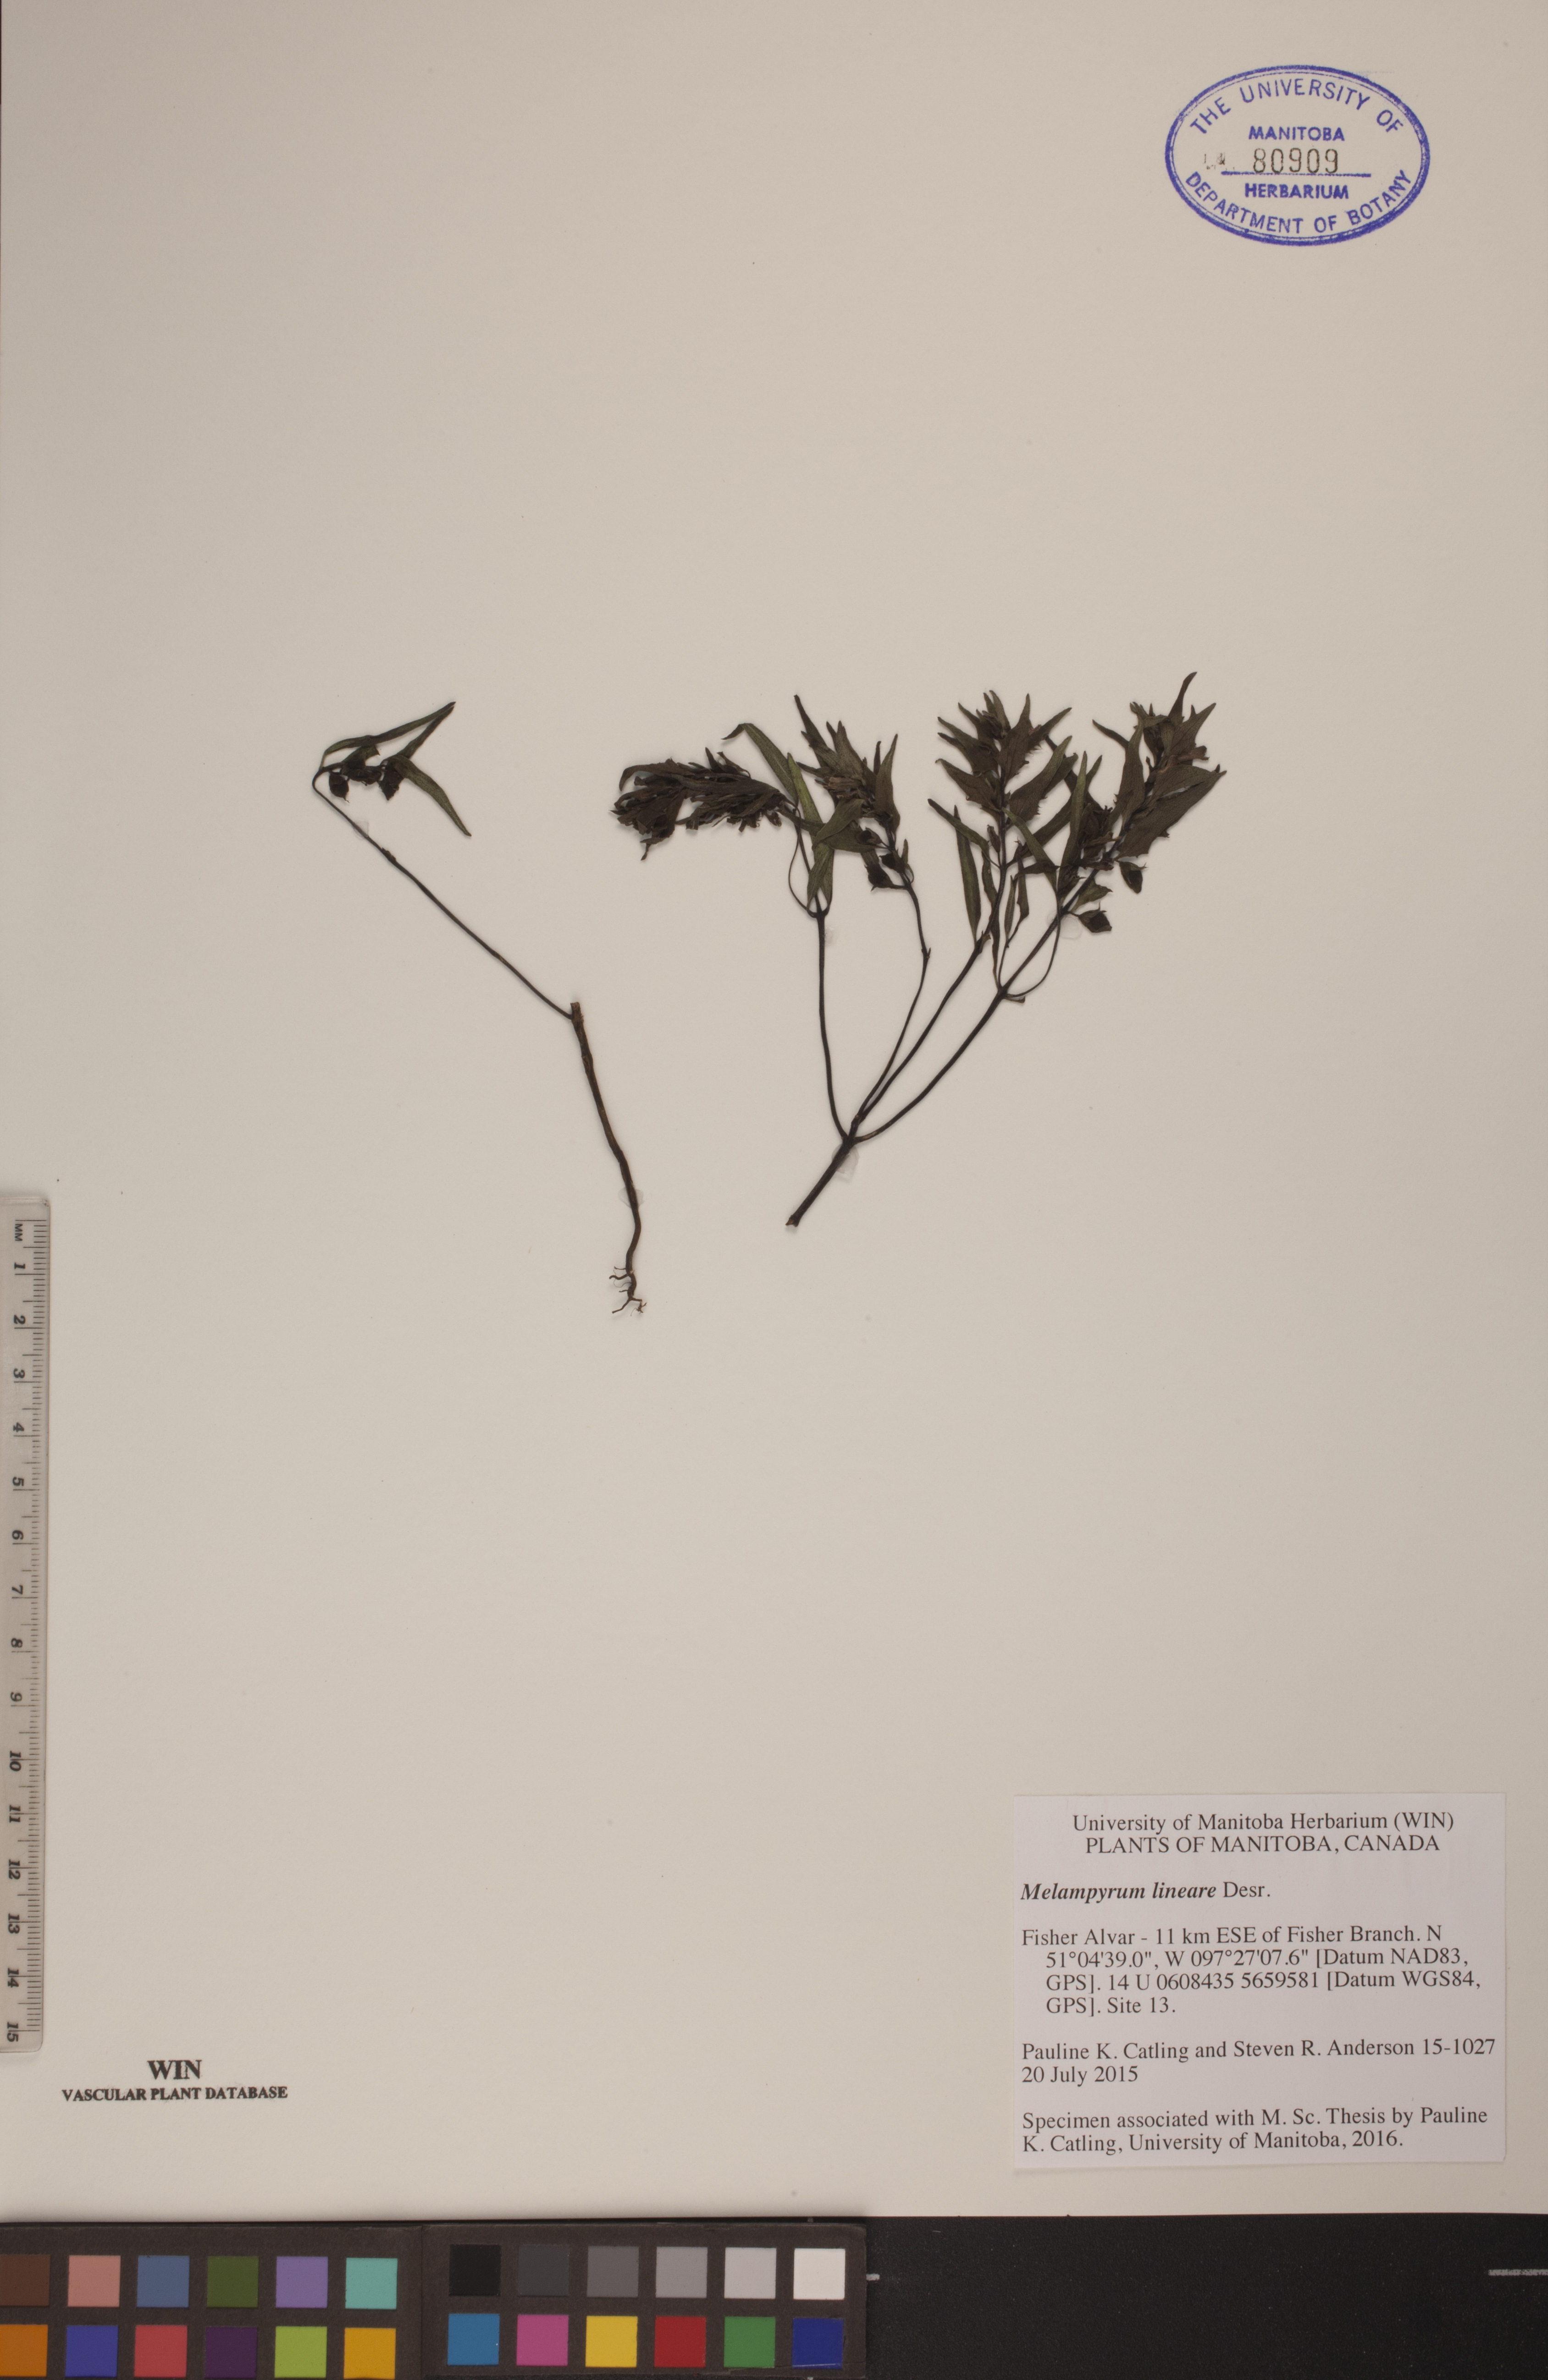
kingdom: Plantae
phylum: Tracheophyta
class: Magnoliopsida
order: Lamiales
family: Orobanchaceae
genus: Melampyrum
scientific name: Melampyrum lineare
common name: American cow-wheat
